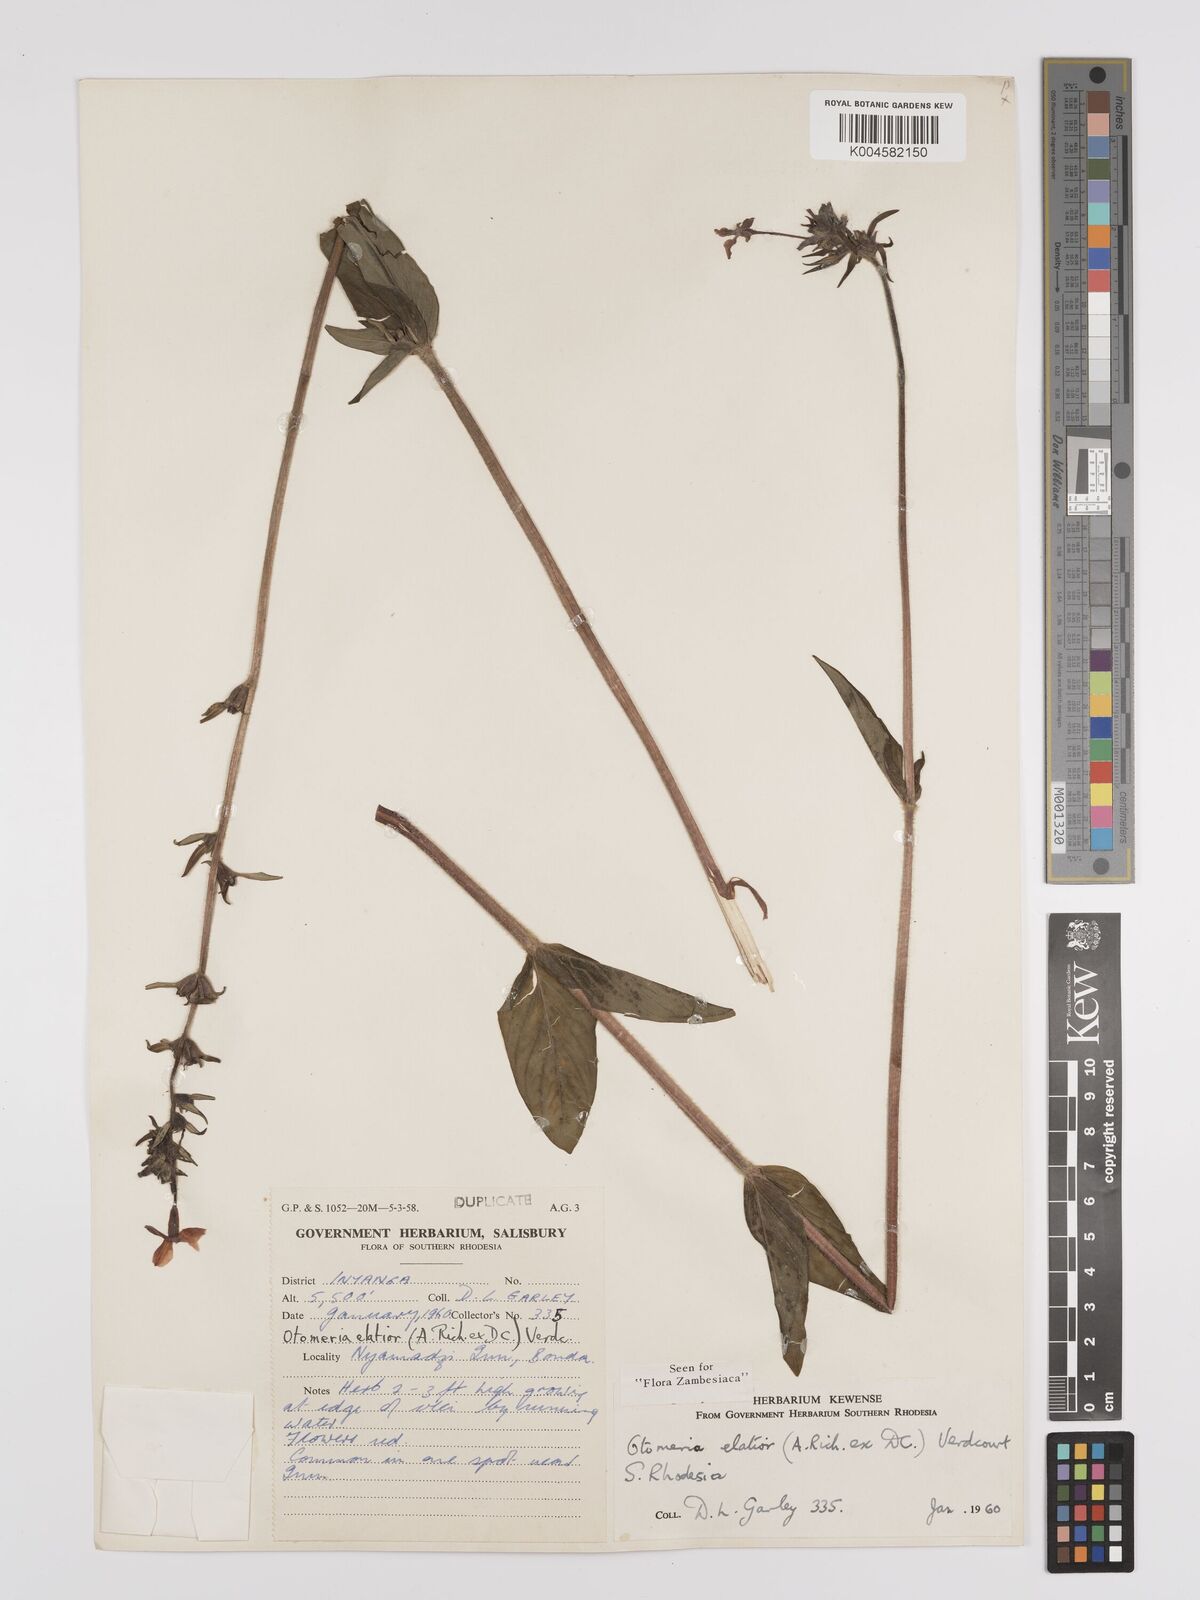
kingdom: Plantae
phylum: Tracheophyta
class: Magnoliopsida
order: Gentianales
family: Rubiaceae
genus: Otomeria
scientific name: Otomeria elatior
